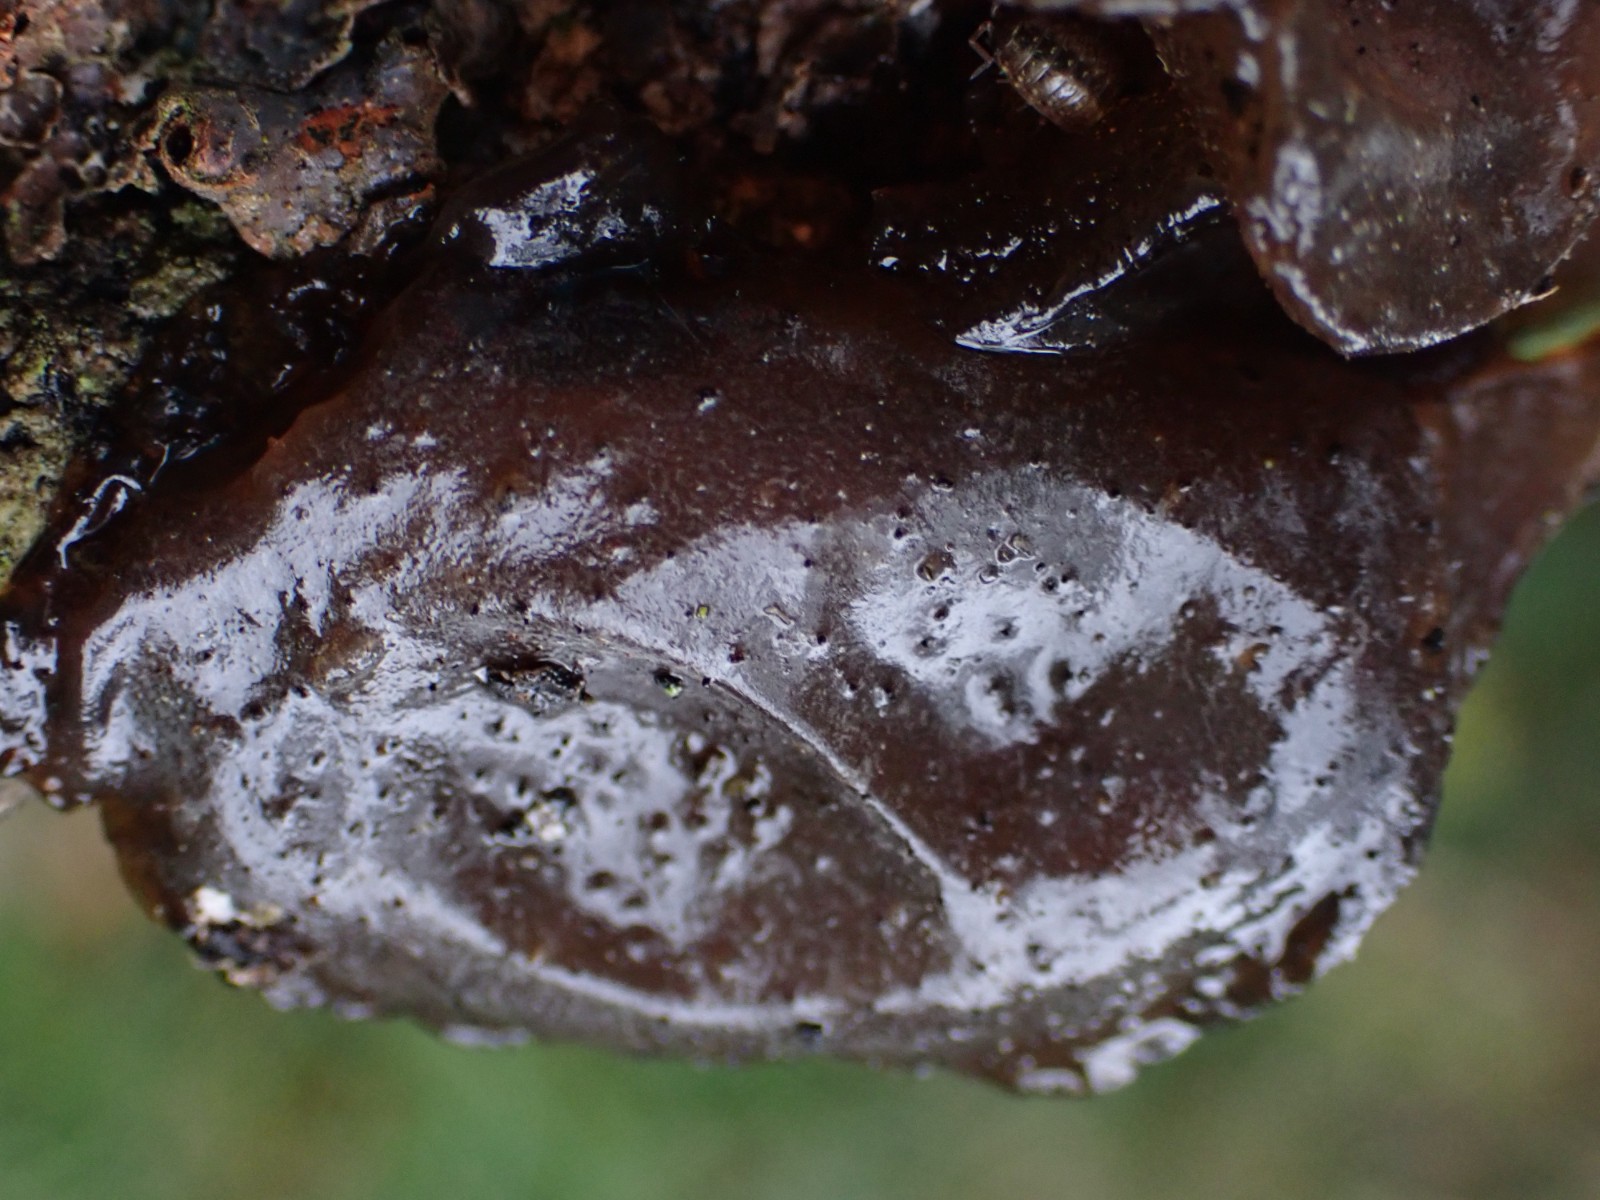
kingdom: Fungi
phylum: Basidiomycota
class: Agaricomycetes
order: Auriculariales
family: Auriculariaceae
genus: Exidia
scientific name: Exidia glandulosa
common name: ege-bævretop
